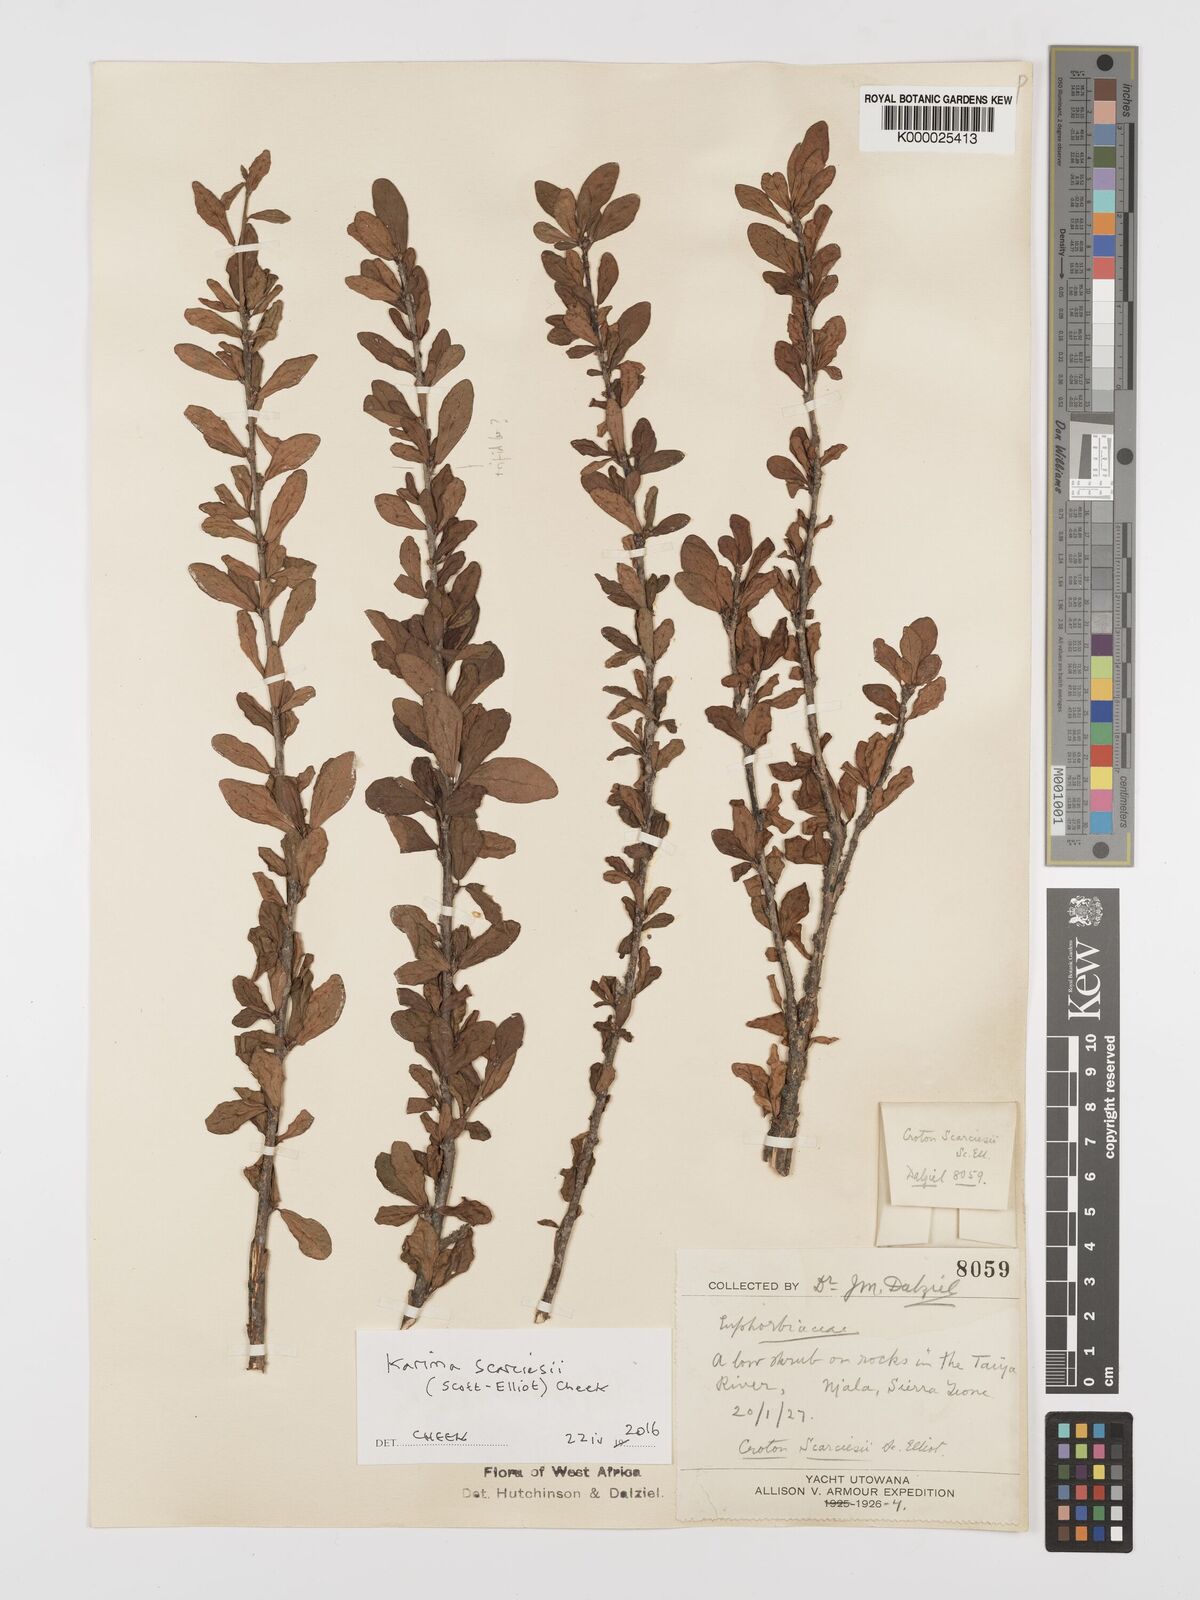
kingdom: Plantae
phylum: Tracheophyta
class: Magnoliopsida
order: Gentianales
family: Rubiaceae
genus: Otomeria
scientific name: Otomeria volubilis
